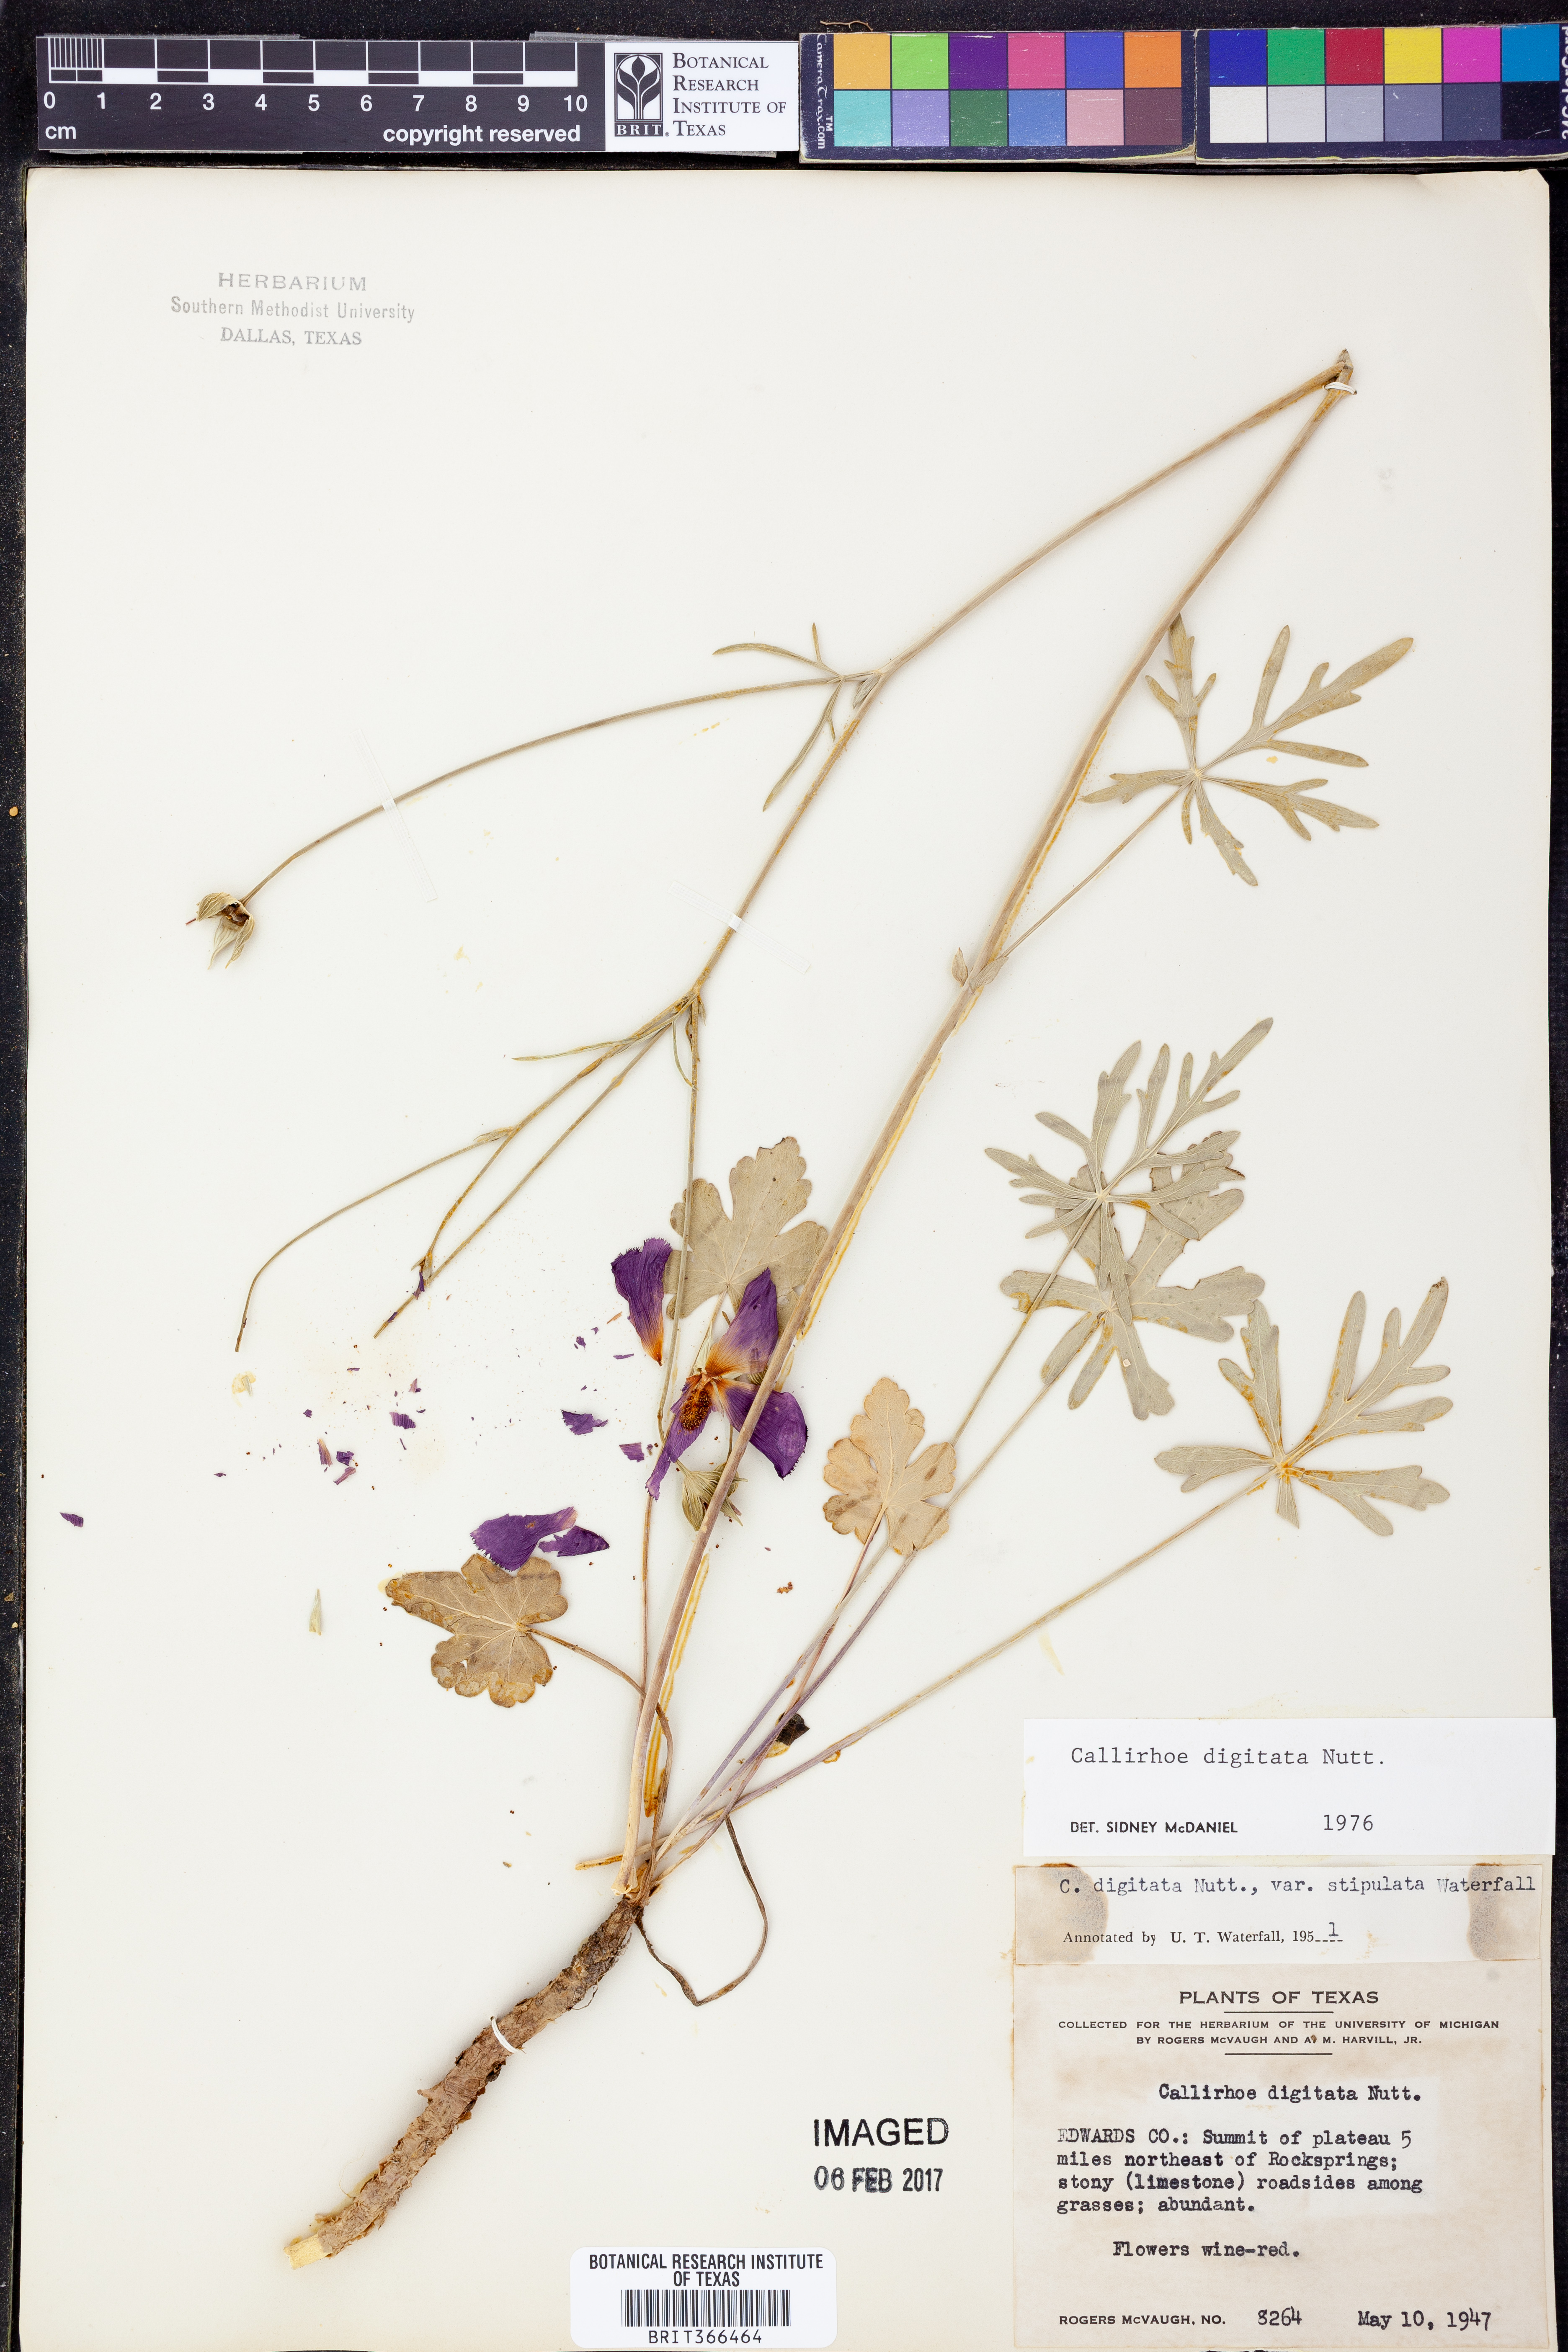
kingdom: Plantae
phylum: Tracheophyta
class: Magnoliopsida
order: Malvales
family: Malvaceae
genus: Callirhoe
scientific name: Callirhoe digitata
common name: Finger poppy-mallow
